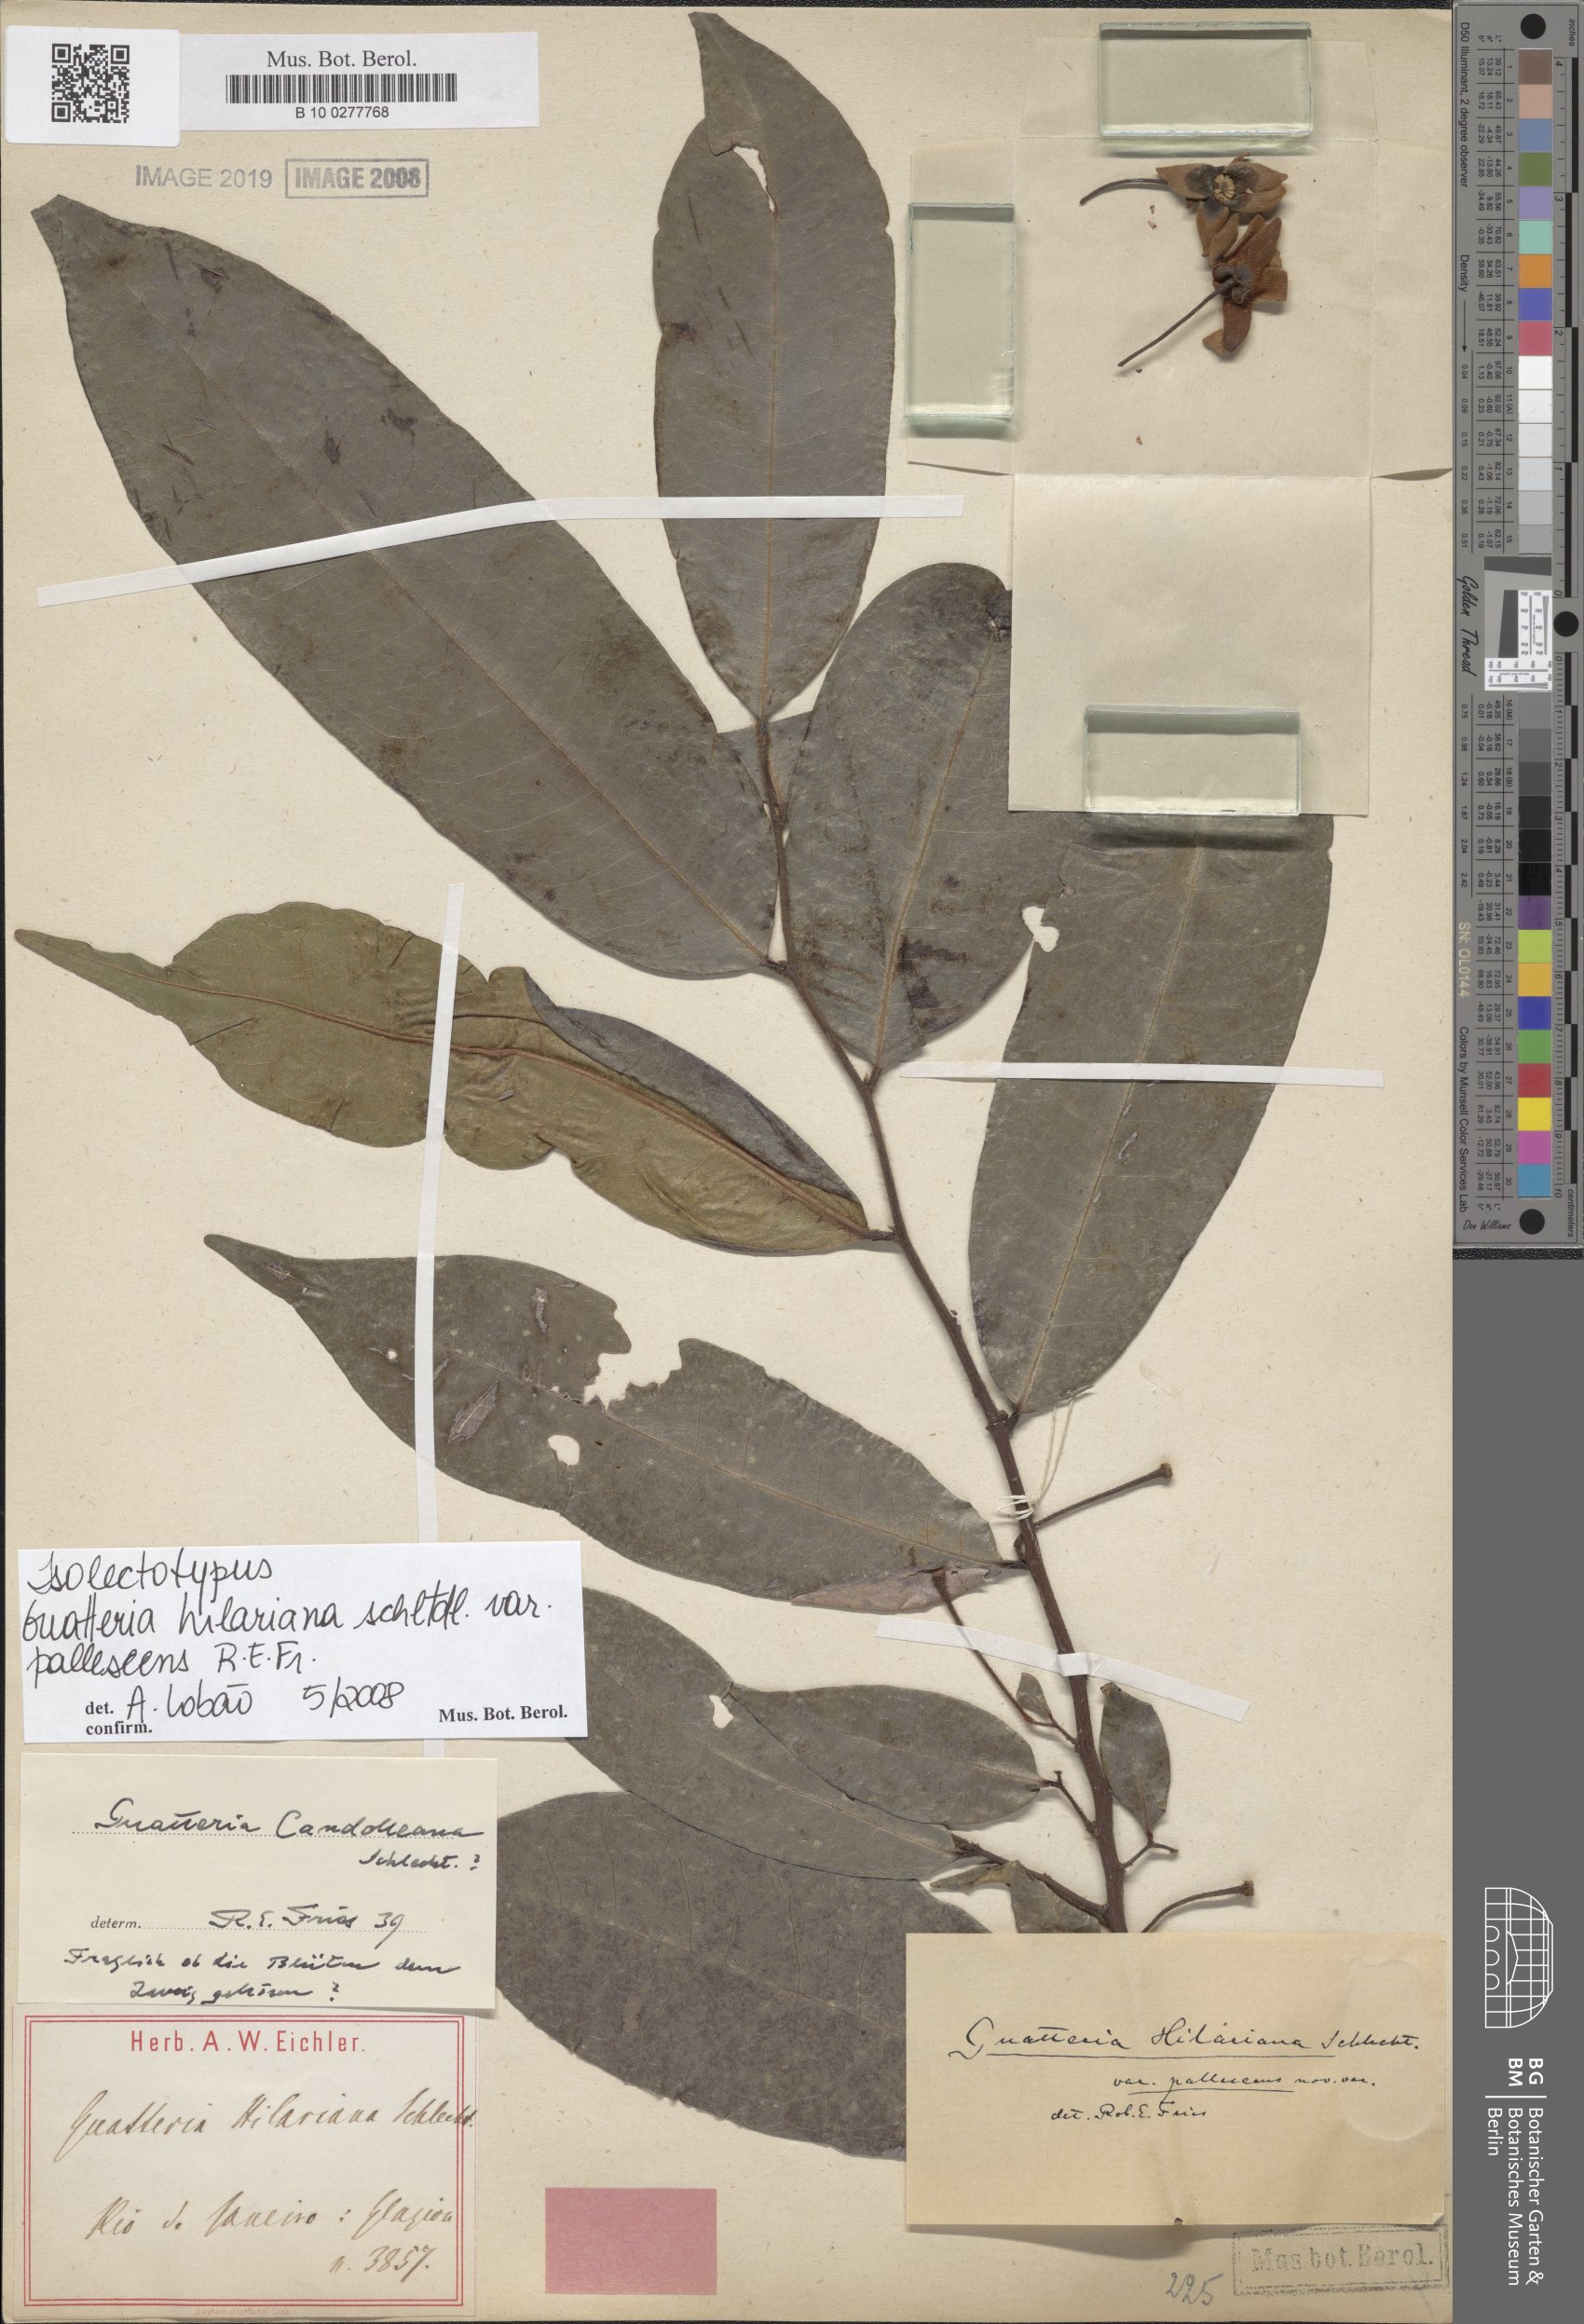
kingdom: Plantae
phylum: Tracheophyta
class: Magnoliopsida
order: Magnoliales
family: Annonaceae
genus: Guatteria
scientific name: Guatteria candolleana
